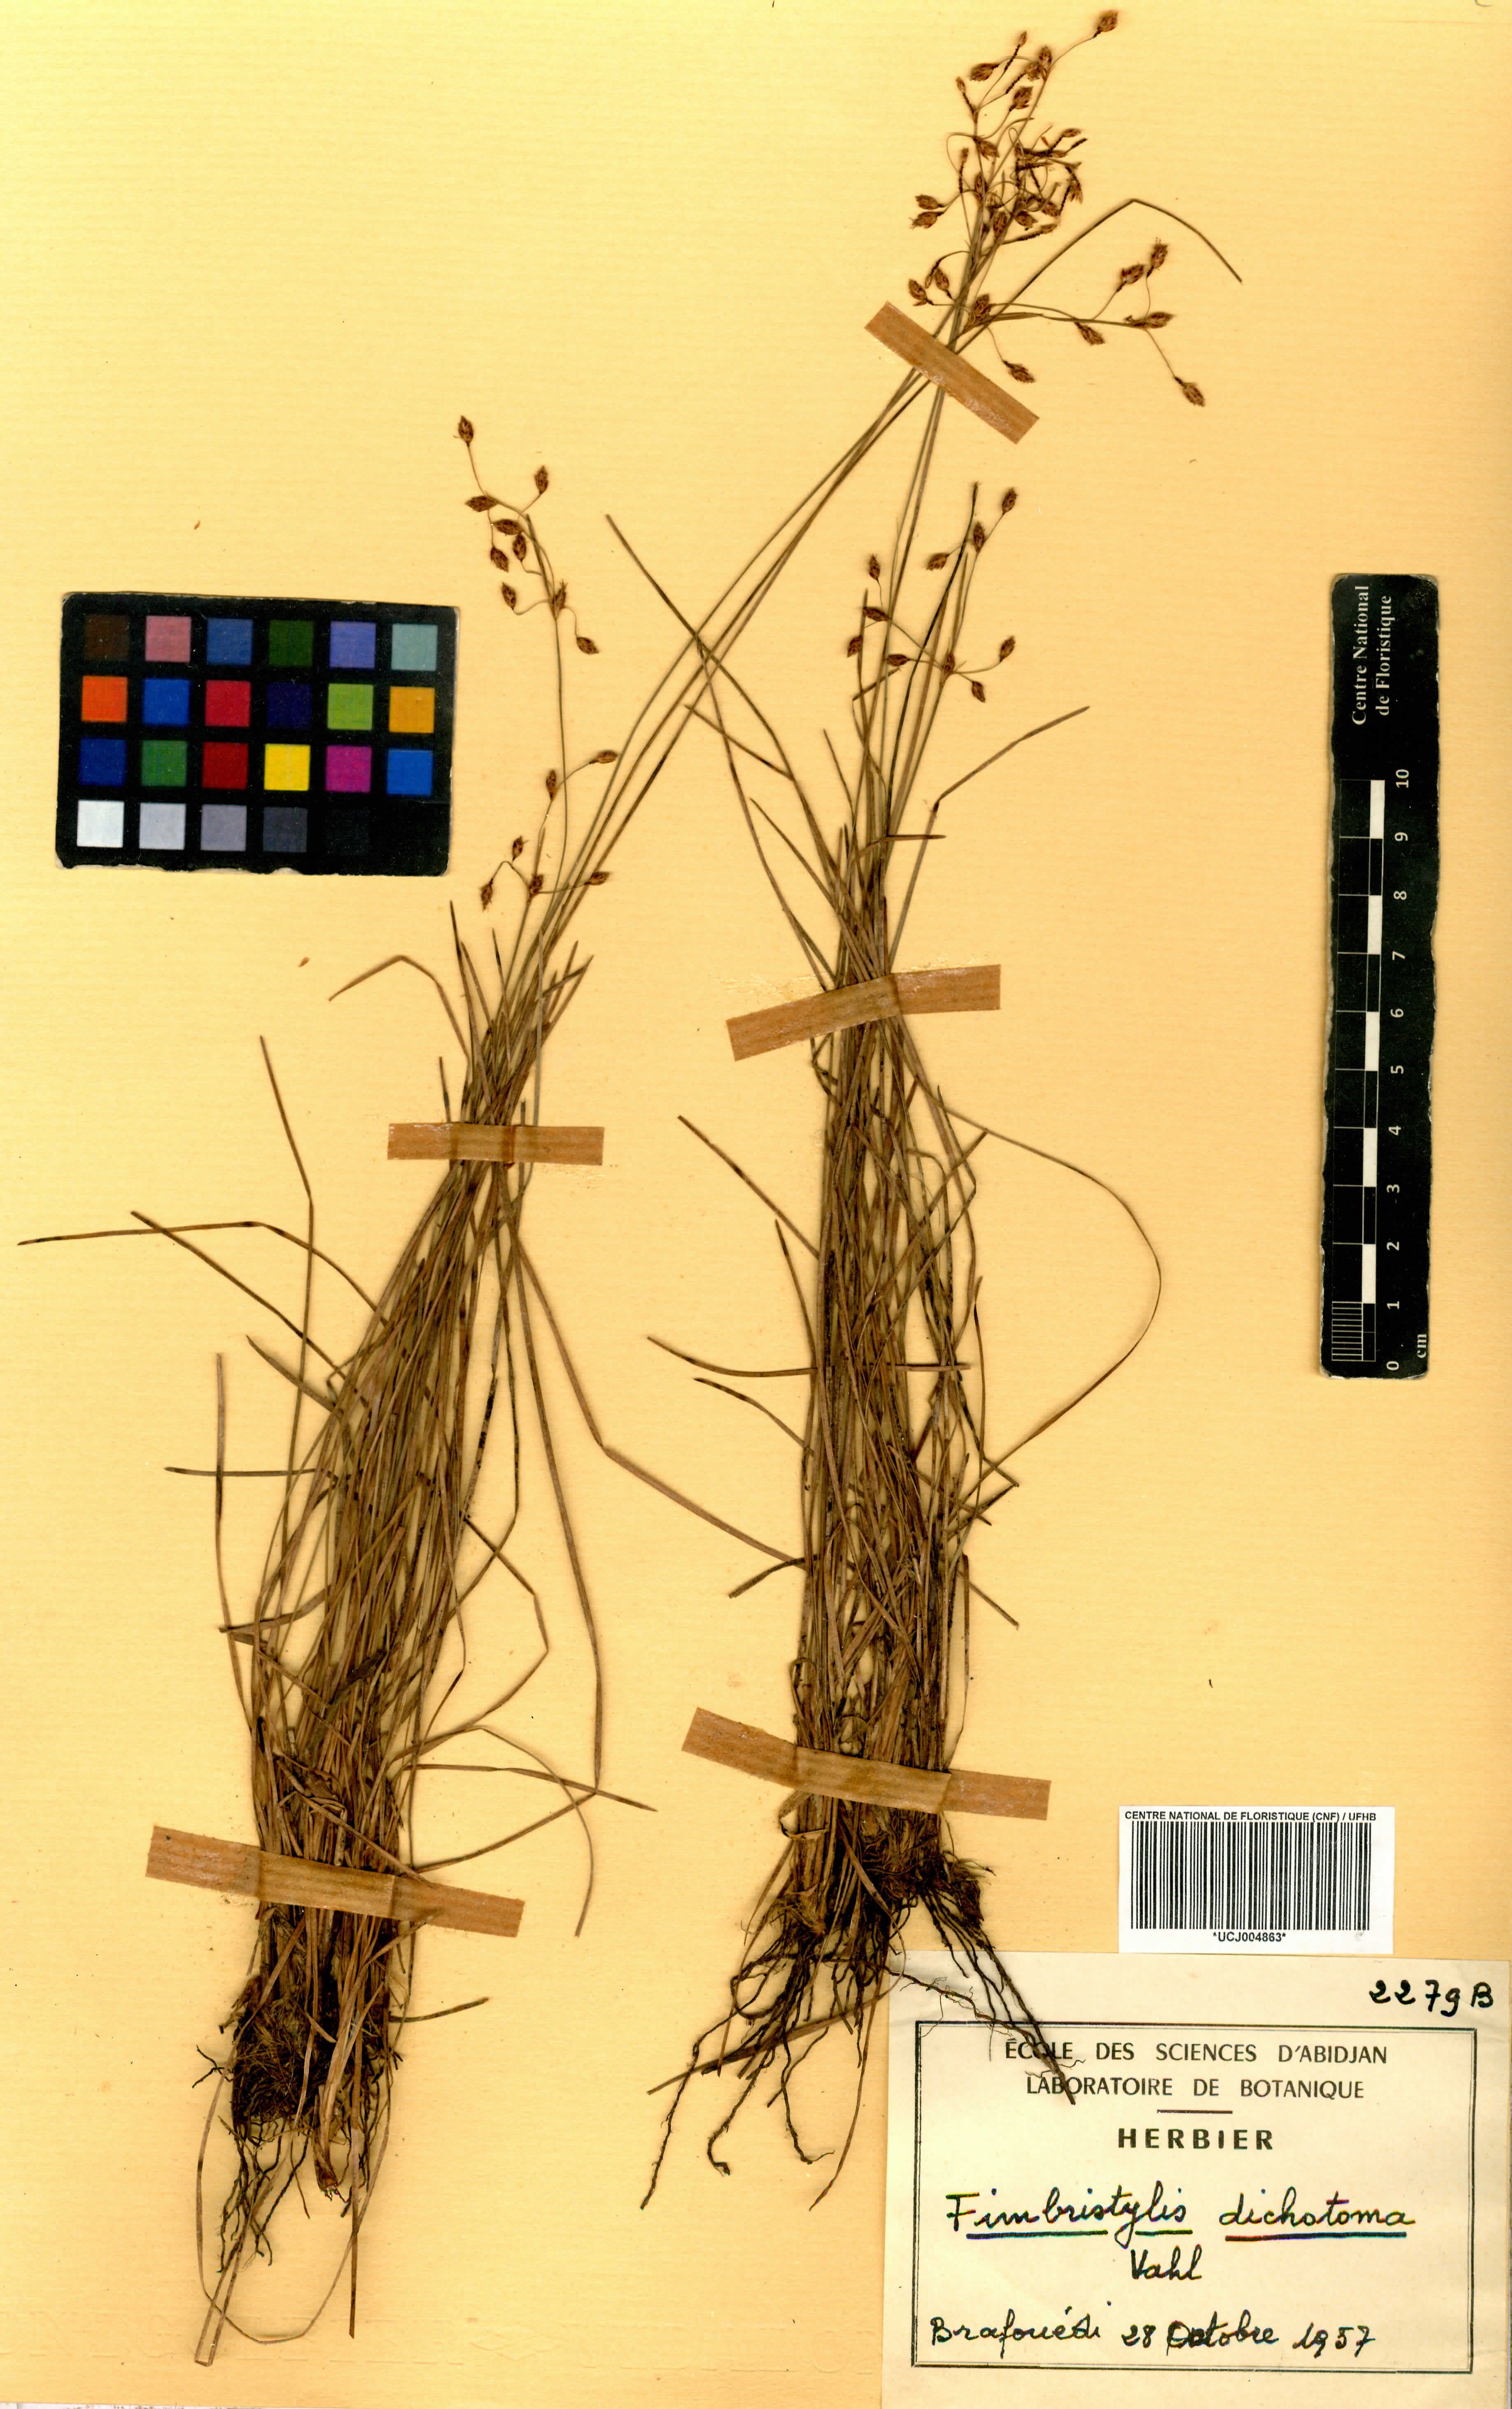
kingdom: Plantae
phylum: Tracheophyta
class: Liliopsida
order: Poales
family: Cyperaceae
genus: Fimbristylis
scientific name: Fimbristylis dichotoma
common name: Forked fimbry
